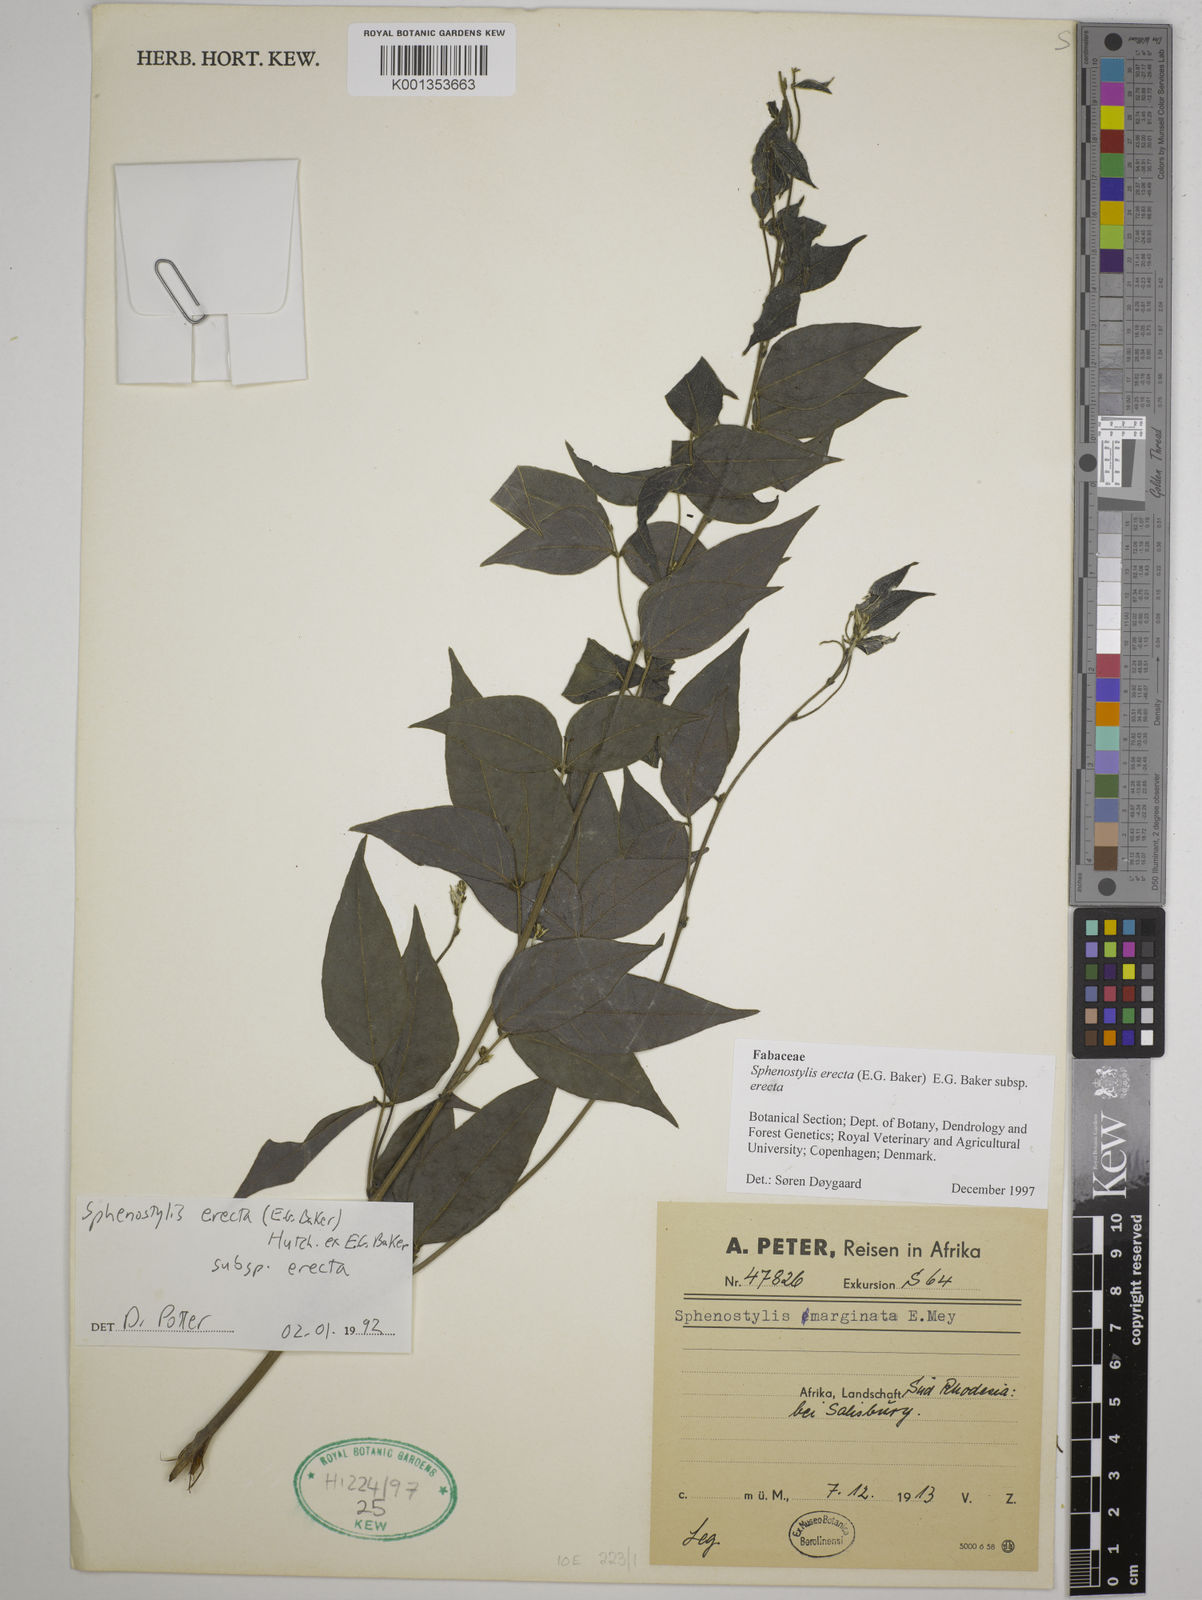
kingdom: Plantae
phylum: Tracheophyta
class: Magnoliopsida
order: Fabales
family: Fabaceae
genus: Sphenostylis
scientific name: Sphenostylis erecta
